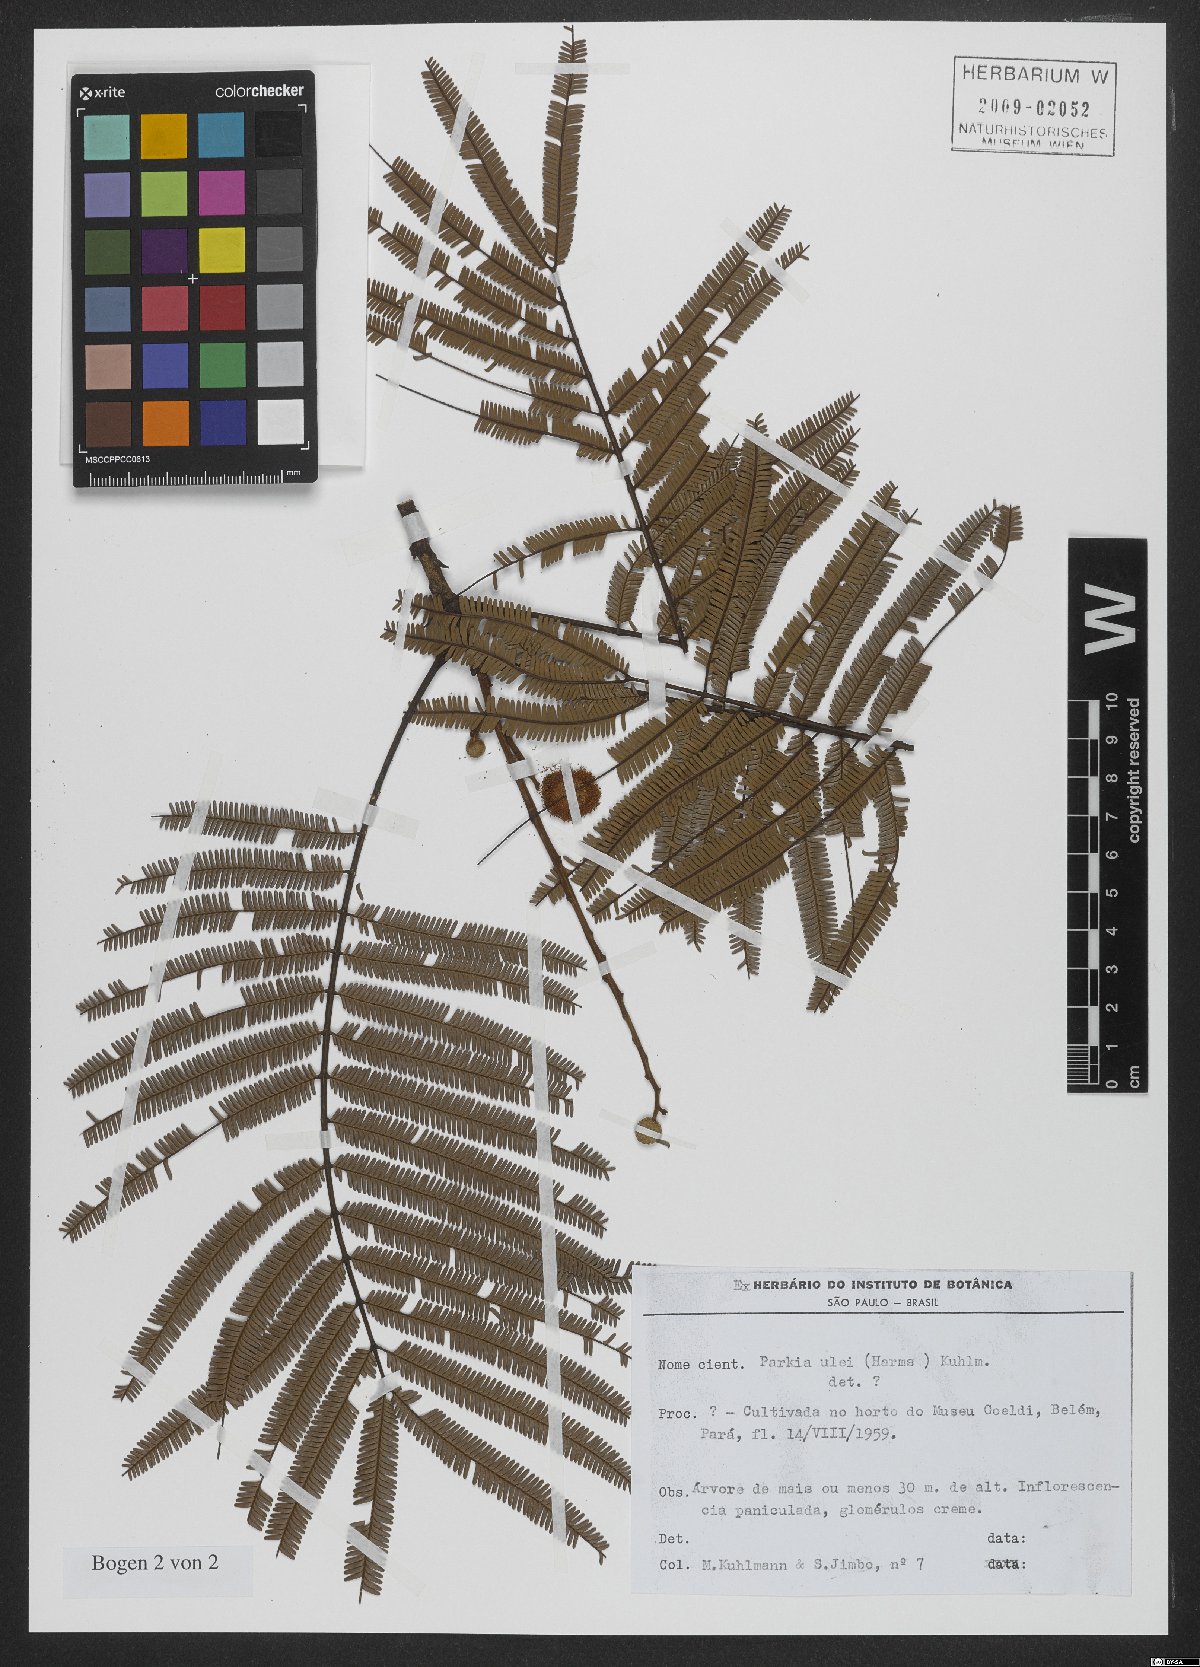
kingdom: Plantae
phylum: Tracheophyta
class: Magnoliopsida
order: Fabales
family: Fabaceae
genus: Parkia
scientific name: Parkia ulei
